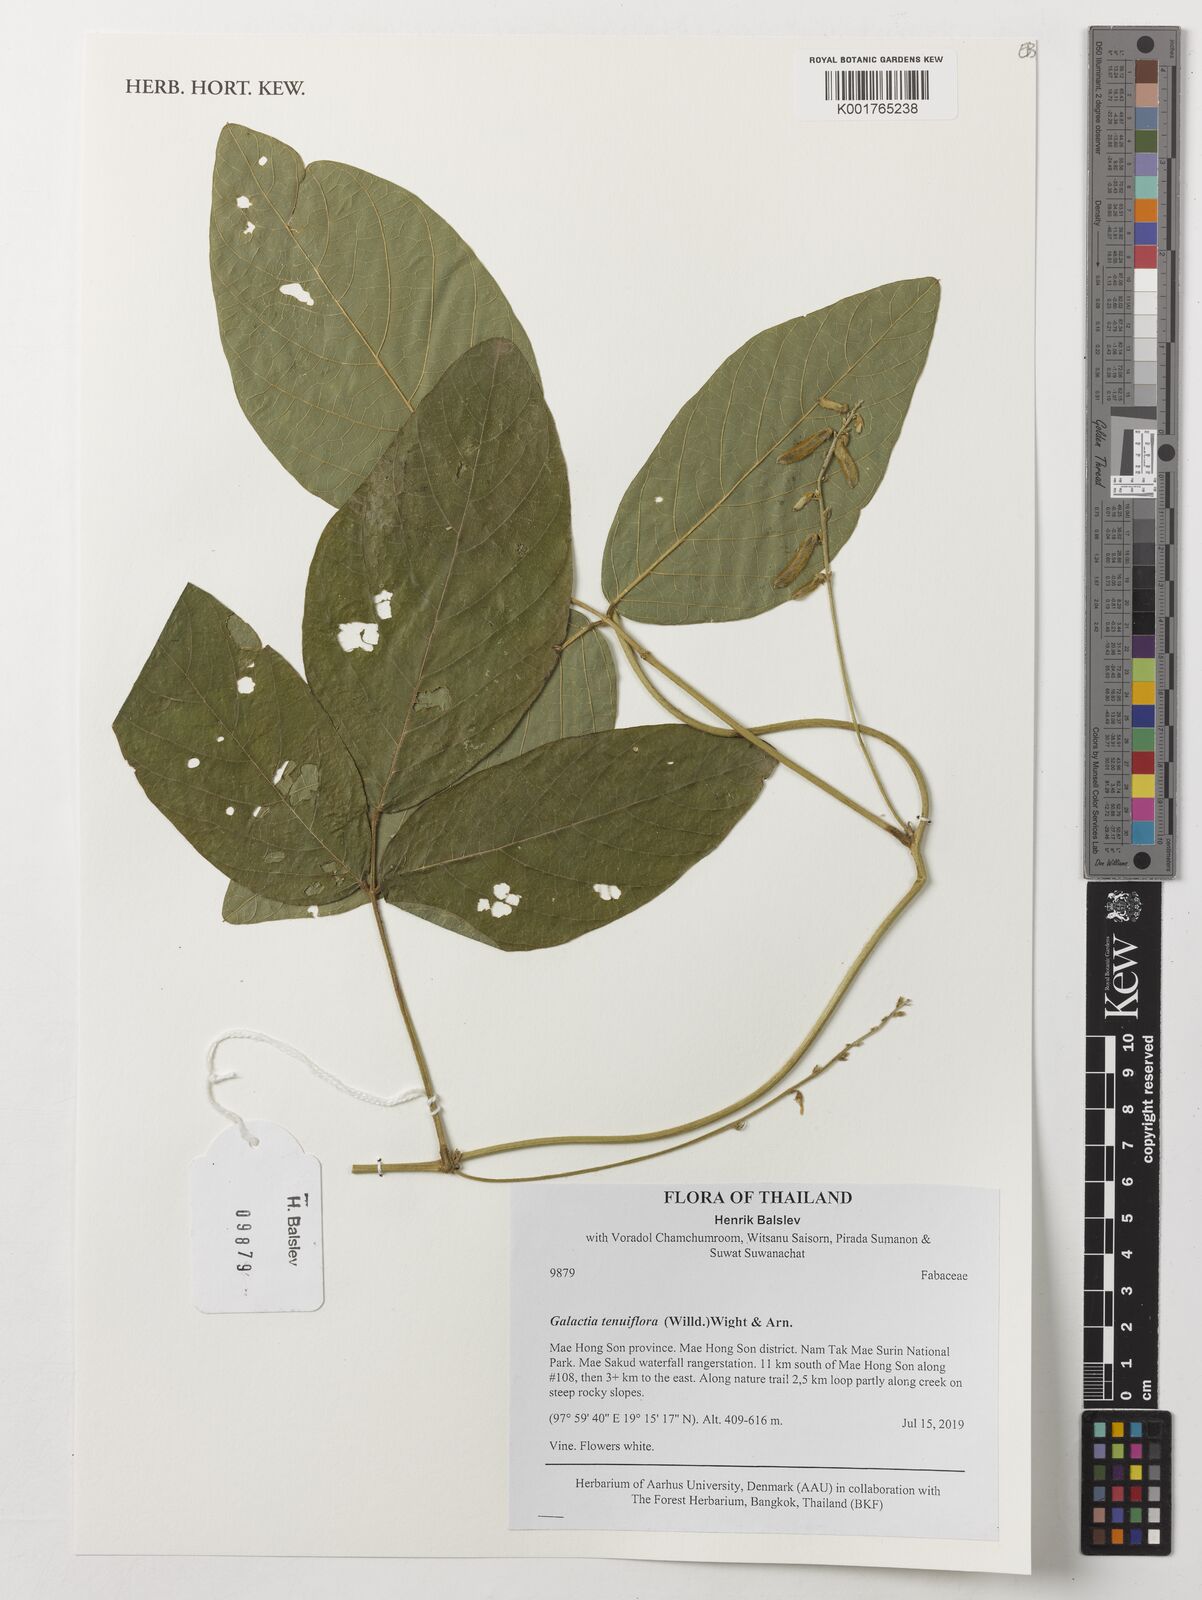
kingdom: Plantae
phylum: Tracheophyta
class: Magnoliopsida
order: Fabales
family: Fabaceae
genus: Galactia
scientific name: Galactia striata
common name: Florida hammock milkpea
